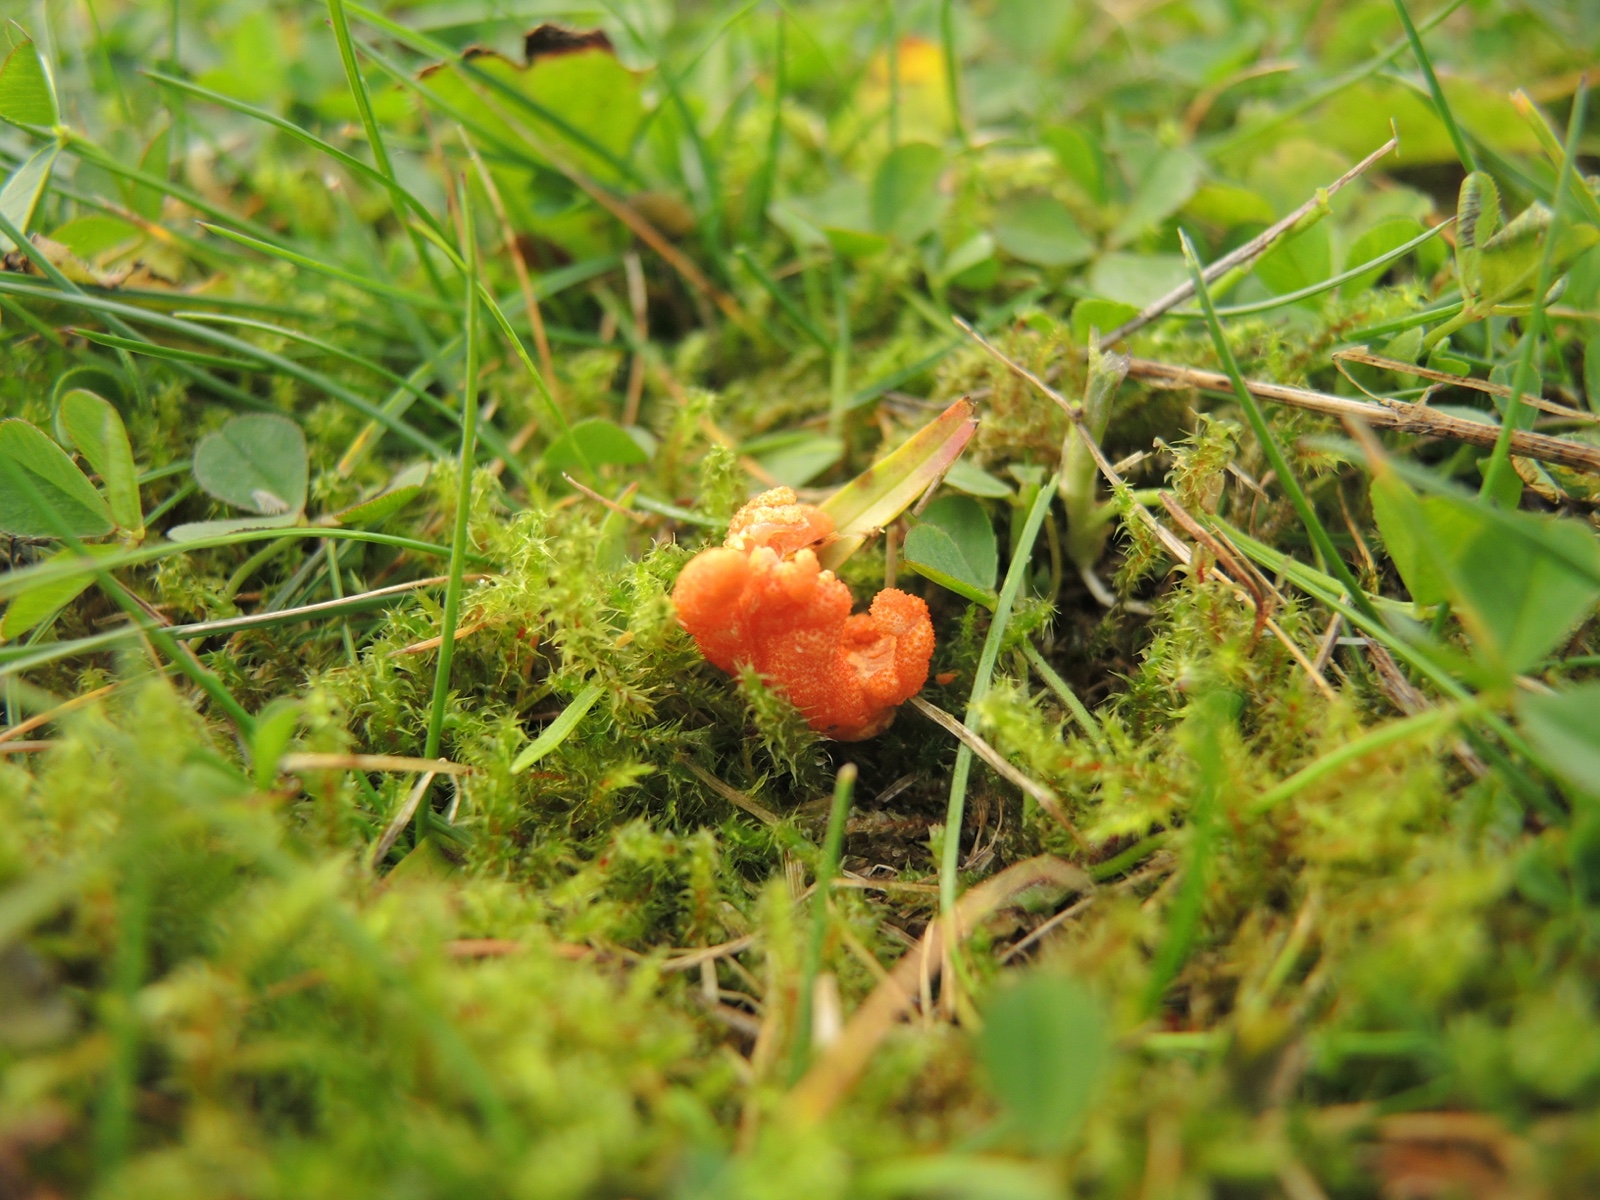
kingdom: Fungi
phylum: Ascomycota
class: Sordariomycetes
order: Hypocreales
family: Cordycipitaceae
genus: Cordyceps
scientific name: Cordyceps militaris
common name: puppe-snyltekølle
